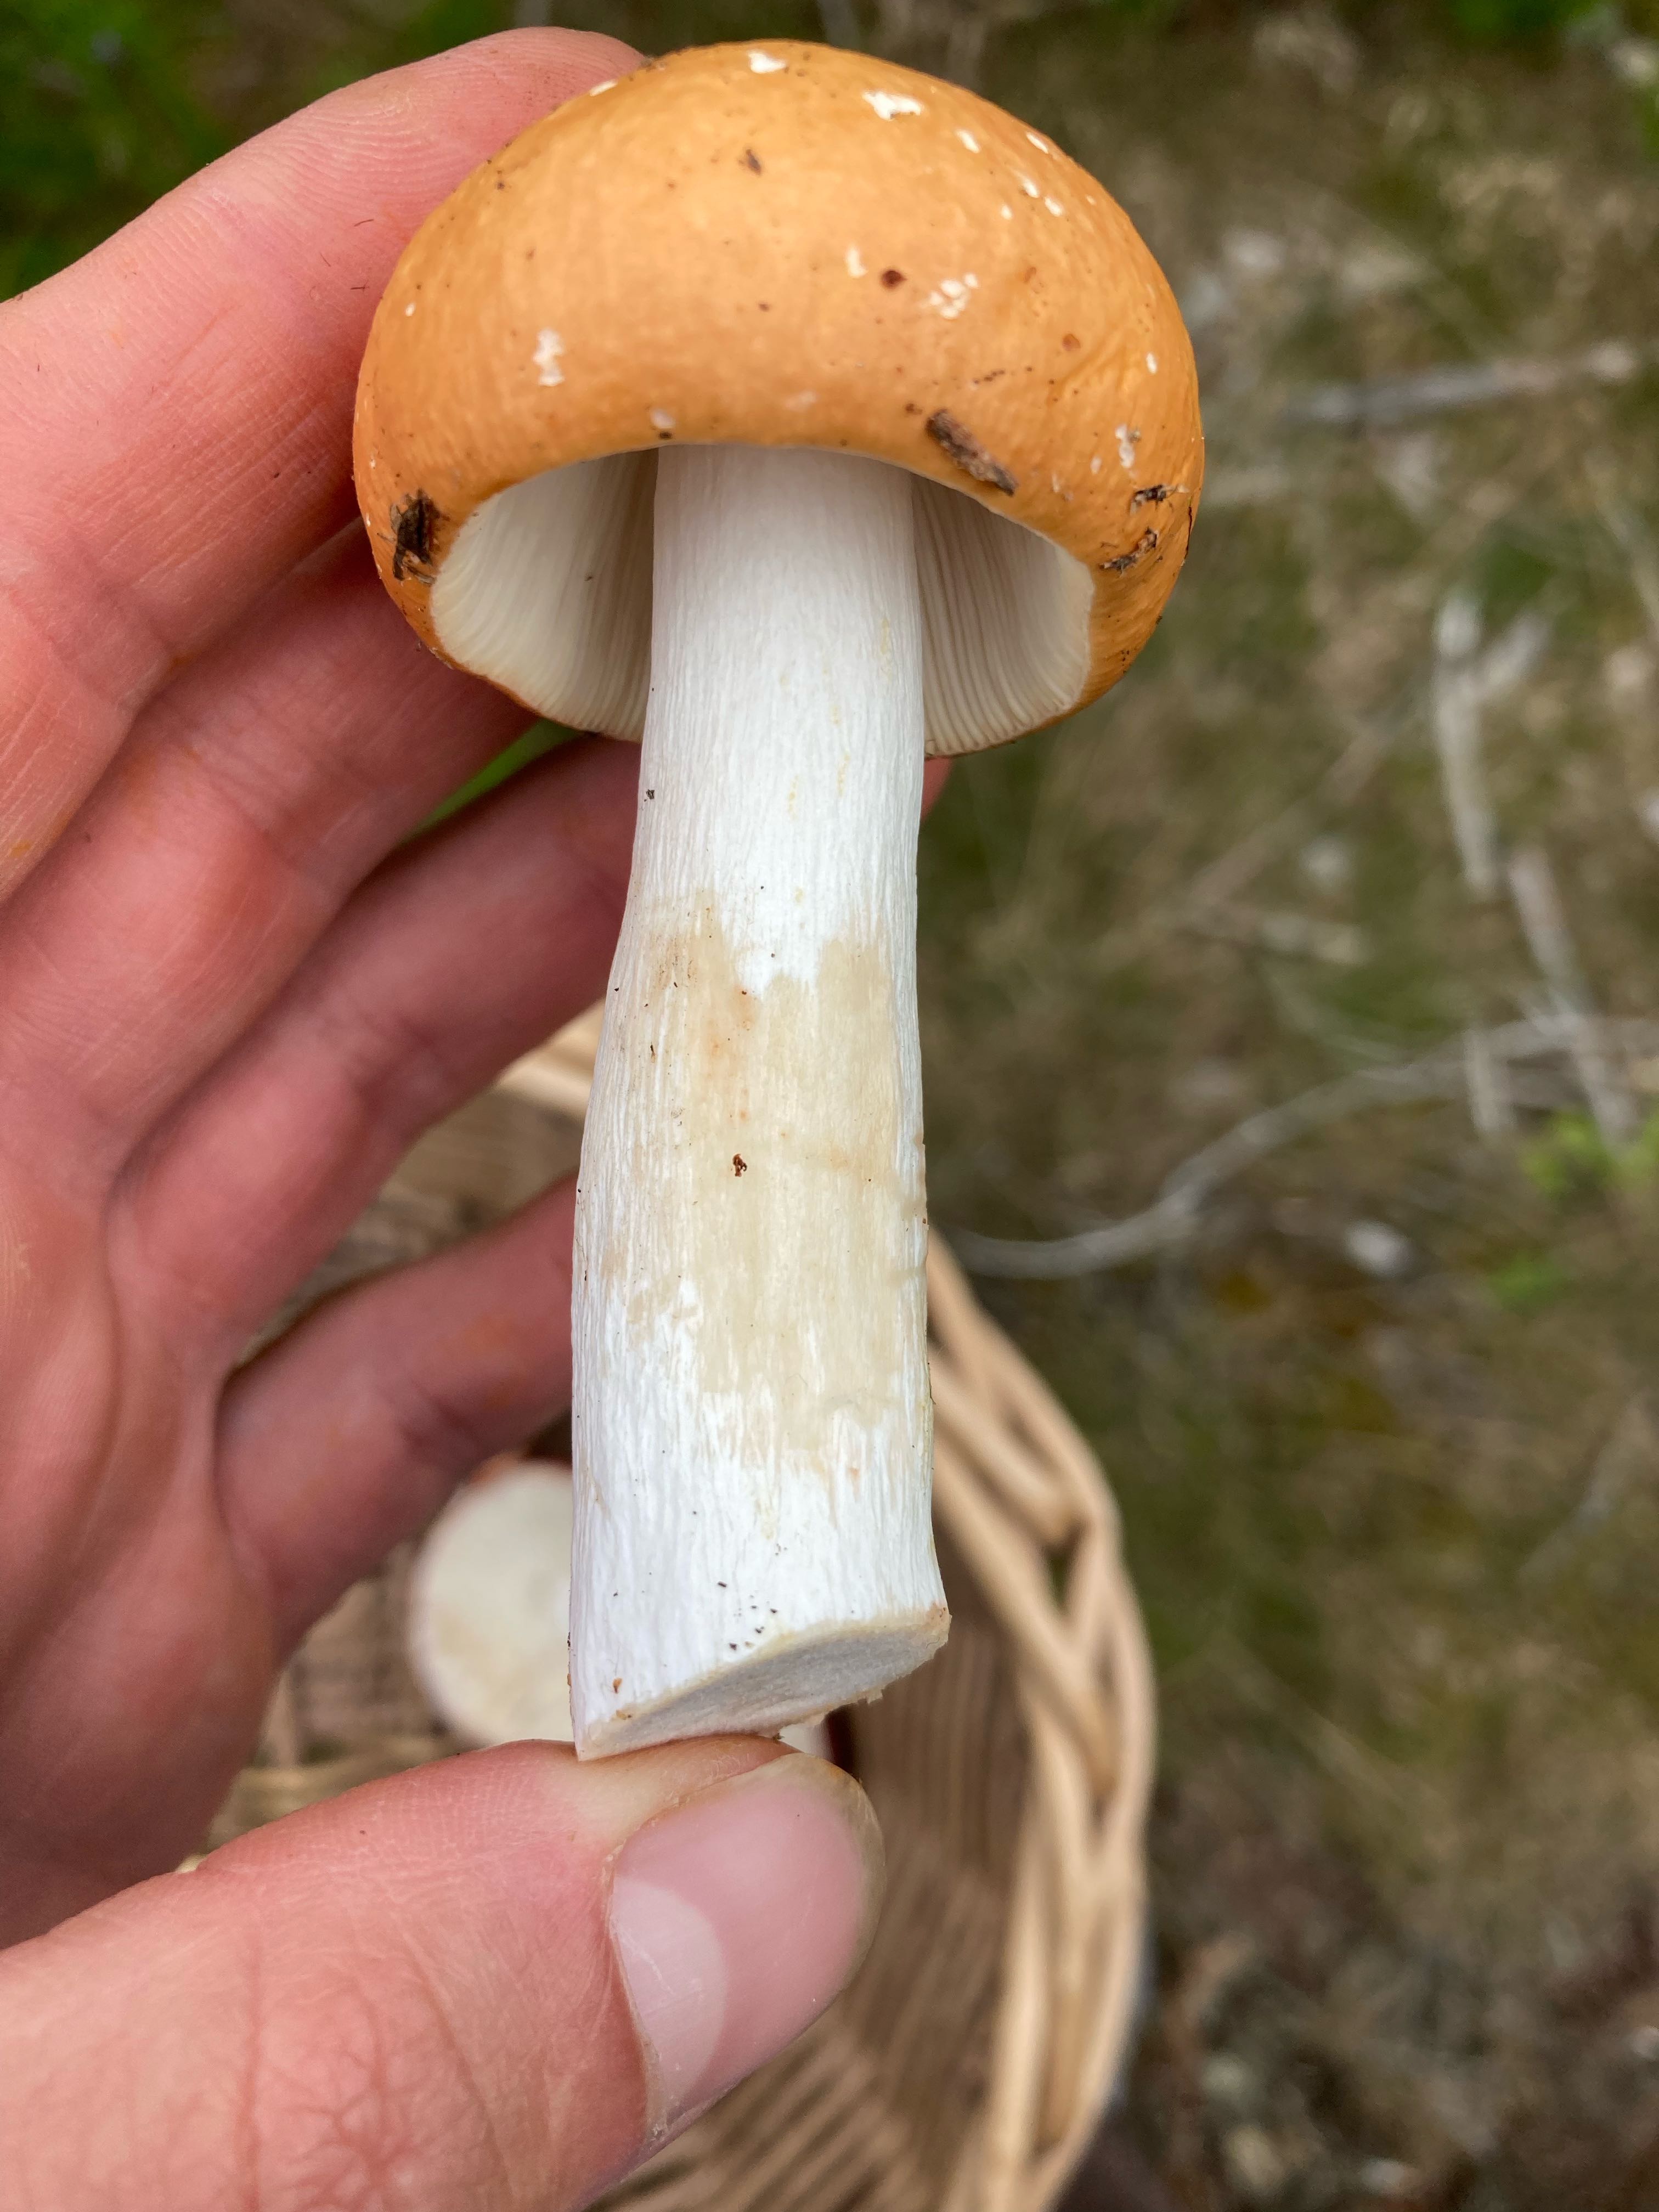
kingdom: Fungi
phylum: Basidiomycota
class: Agaricomycetes
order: Russulales
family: Russulaceae
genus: Russula
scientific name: Russula decolorans
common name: afblegende skørhat
